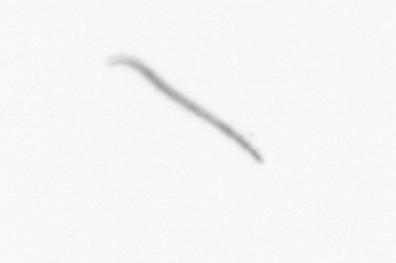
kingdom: Chromista
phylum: Ochrophyta
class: Bacillariophyceae
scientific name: Bacillariophyceae
